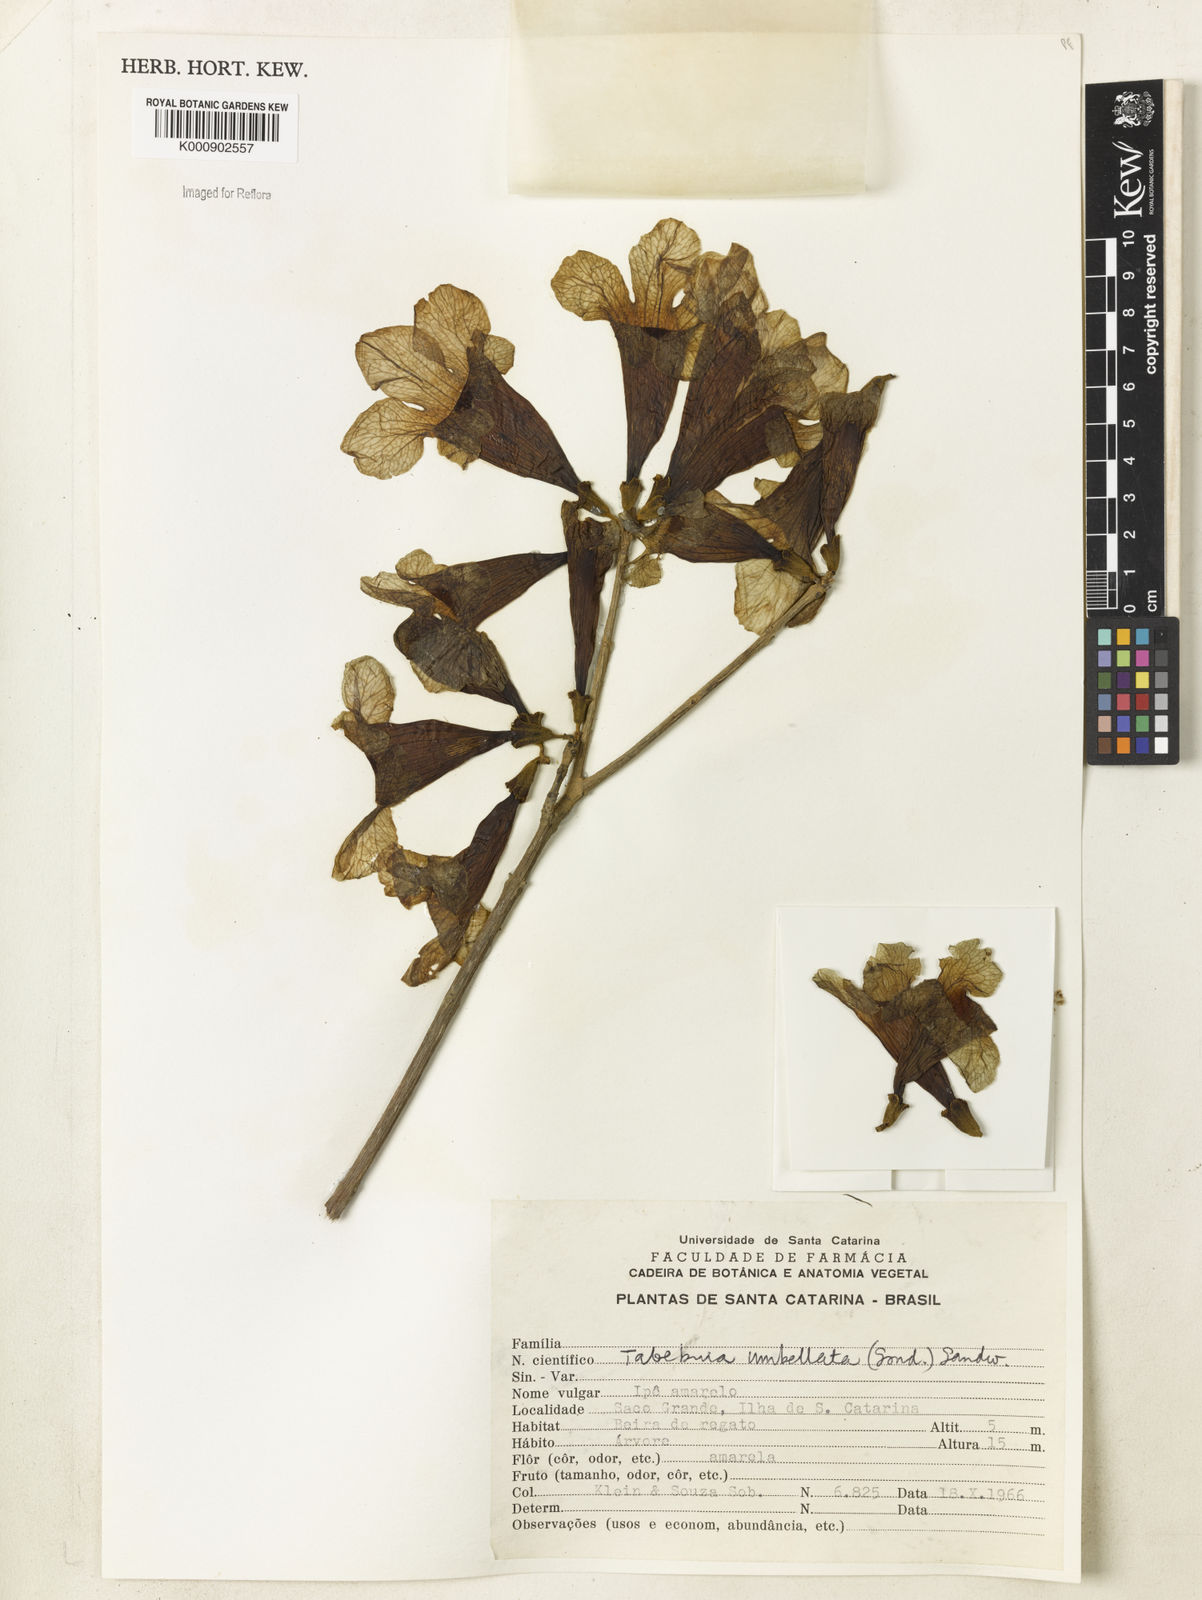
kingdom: Plantae
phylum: Tracheophyta
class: Magnoliopsida
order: Lamiales
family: Bignoniaceae
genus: Handroanthus
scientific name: Handroanthus umbellatus
